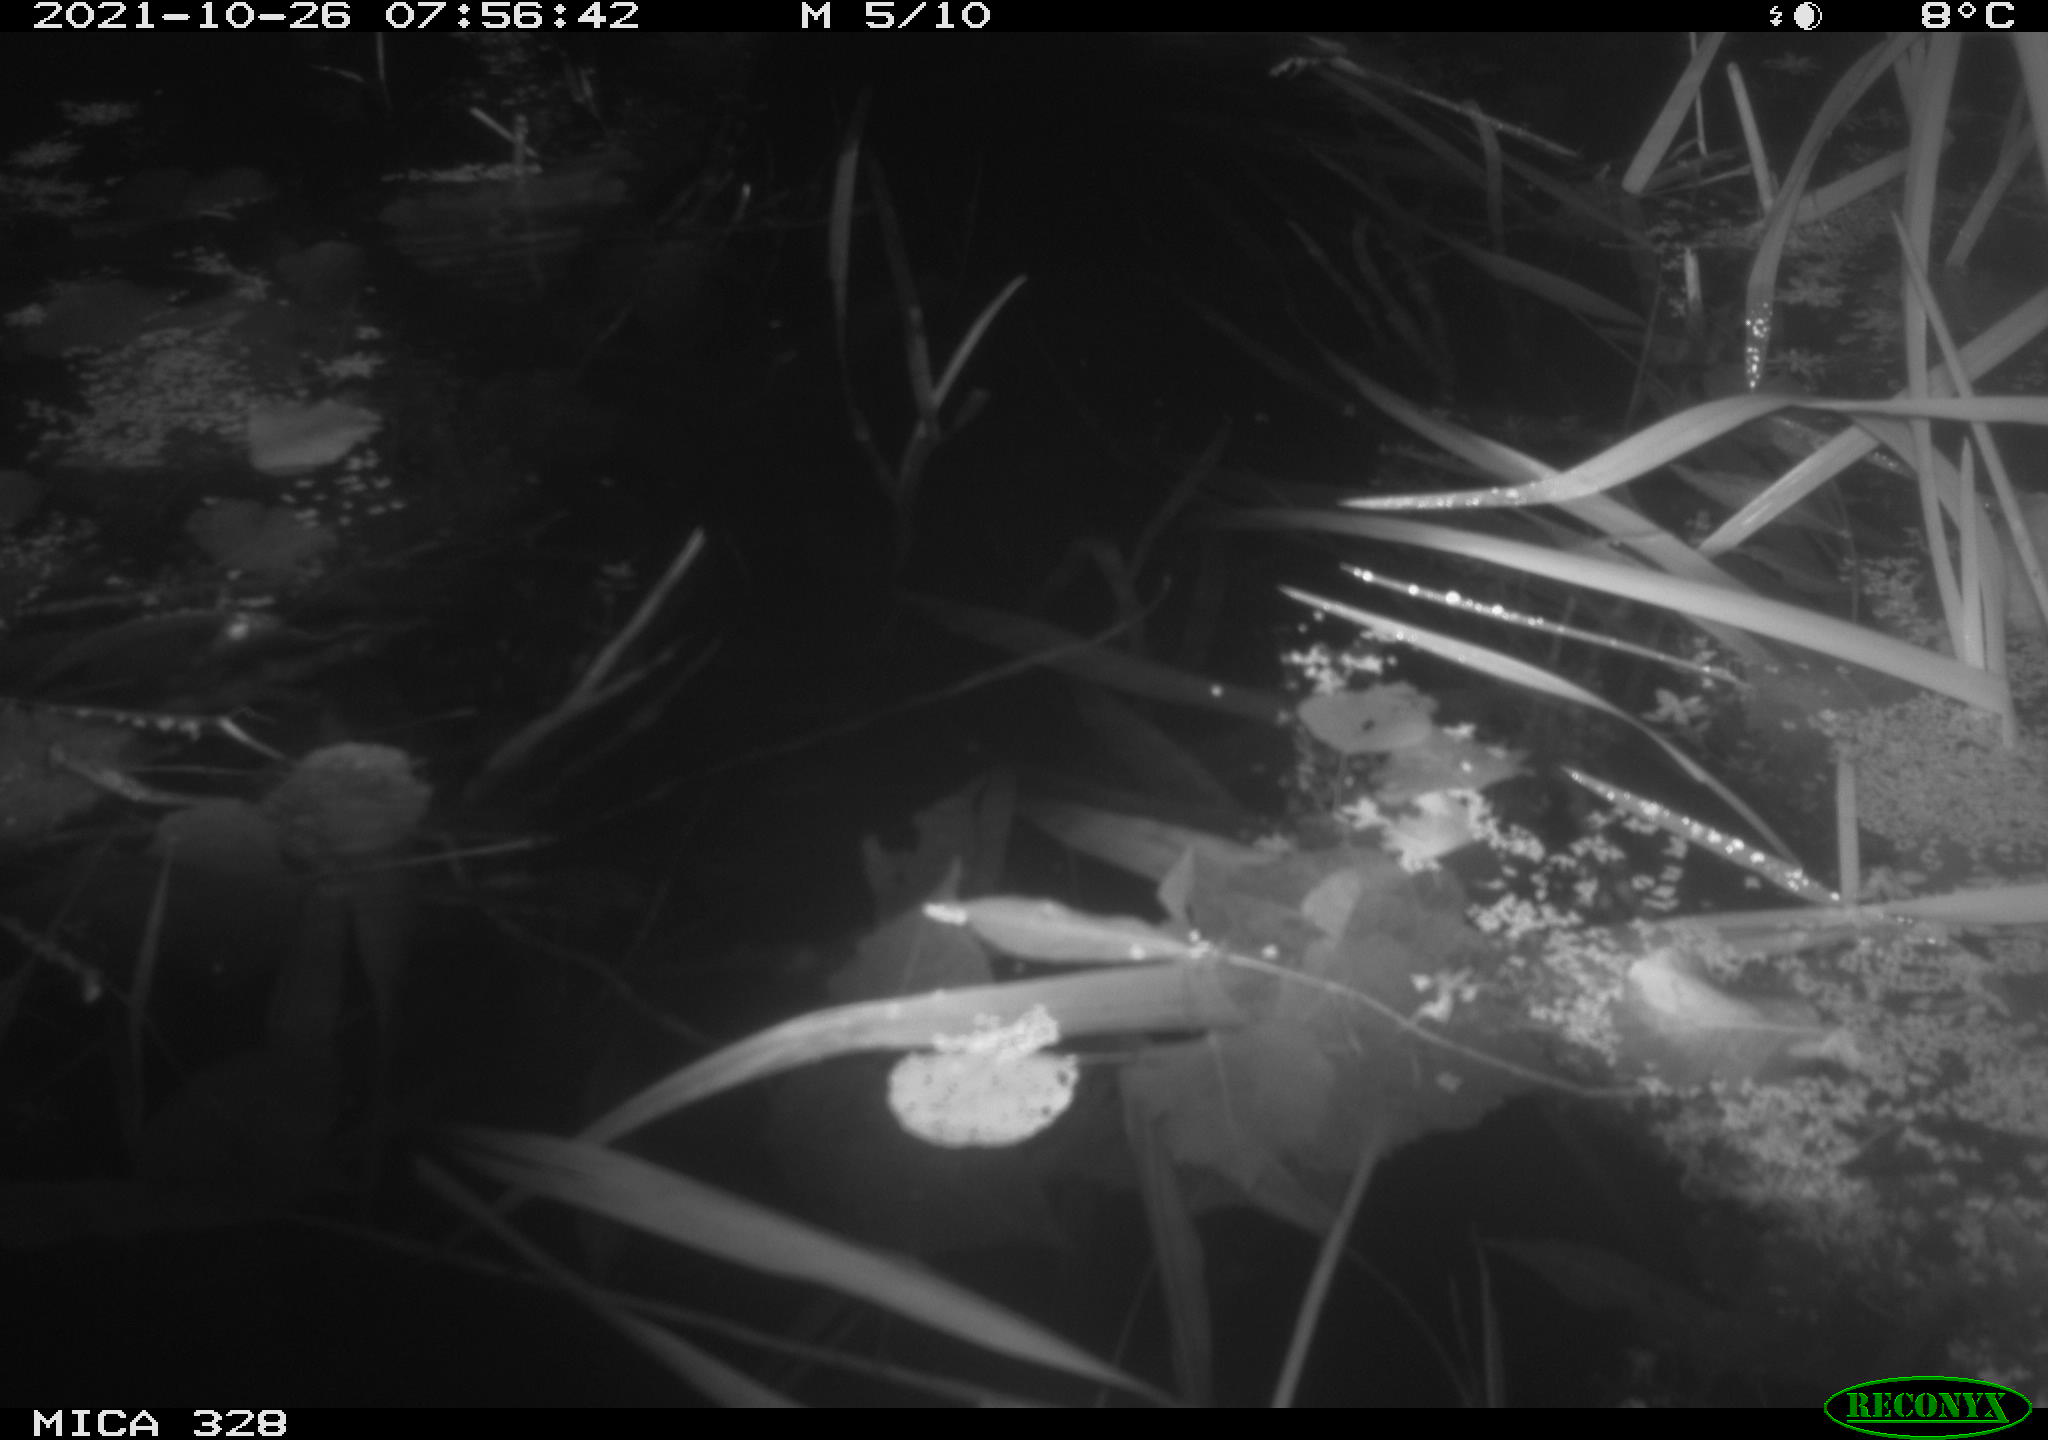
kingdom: Animalia
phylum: Chordata
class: Aves
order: Gruiformes
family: Rallidae
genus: Gallinula
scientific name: Gallinula chloropus
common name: Common moorhen
